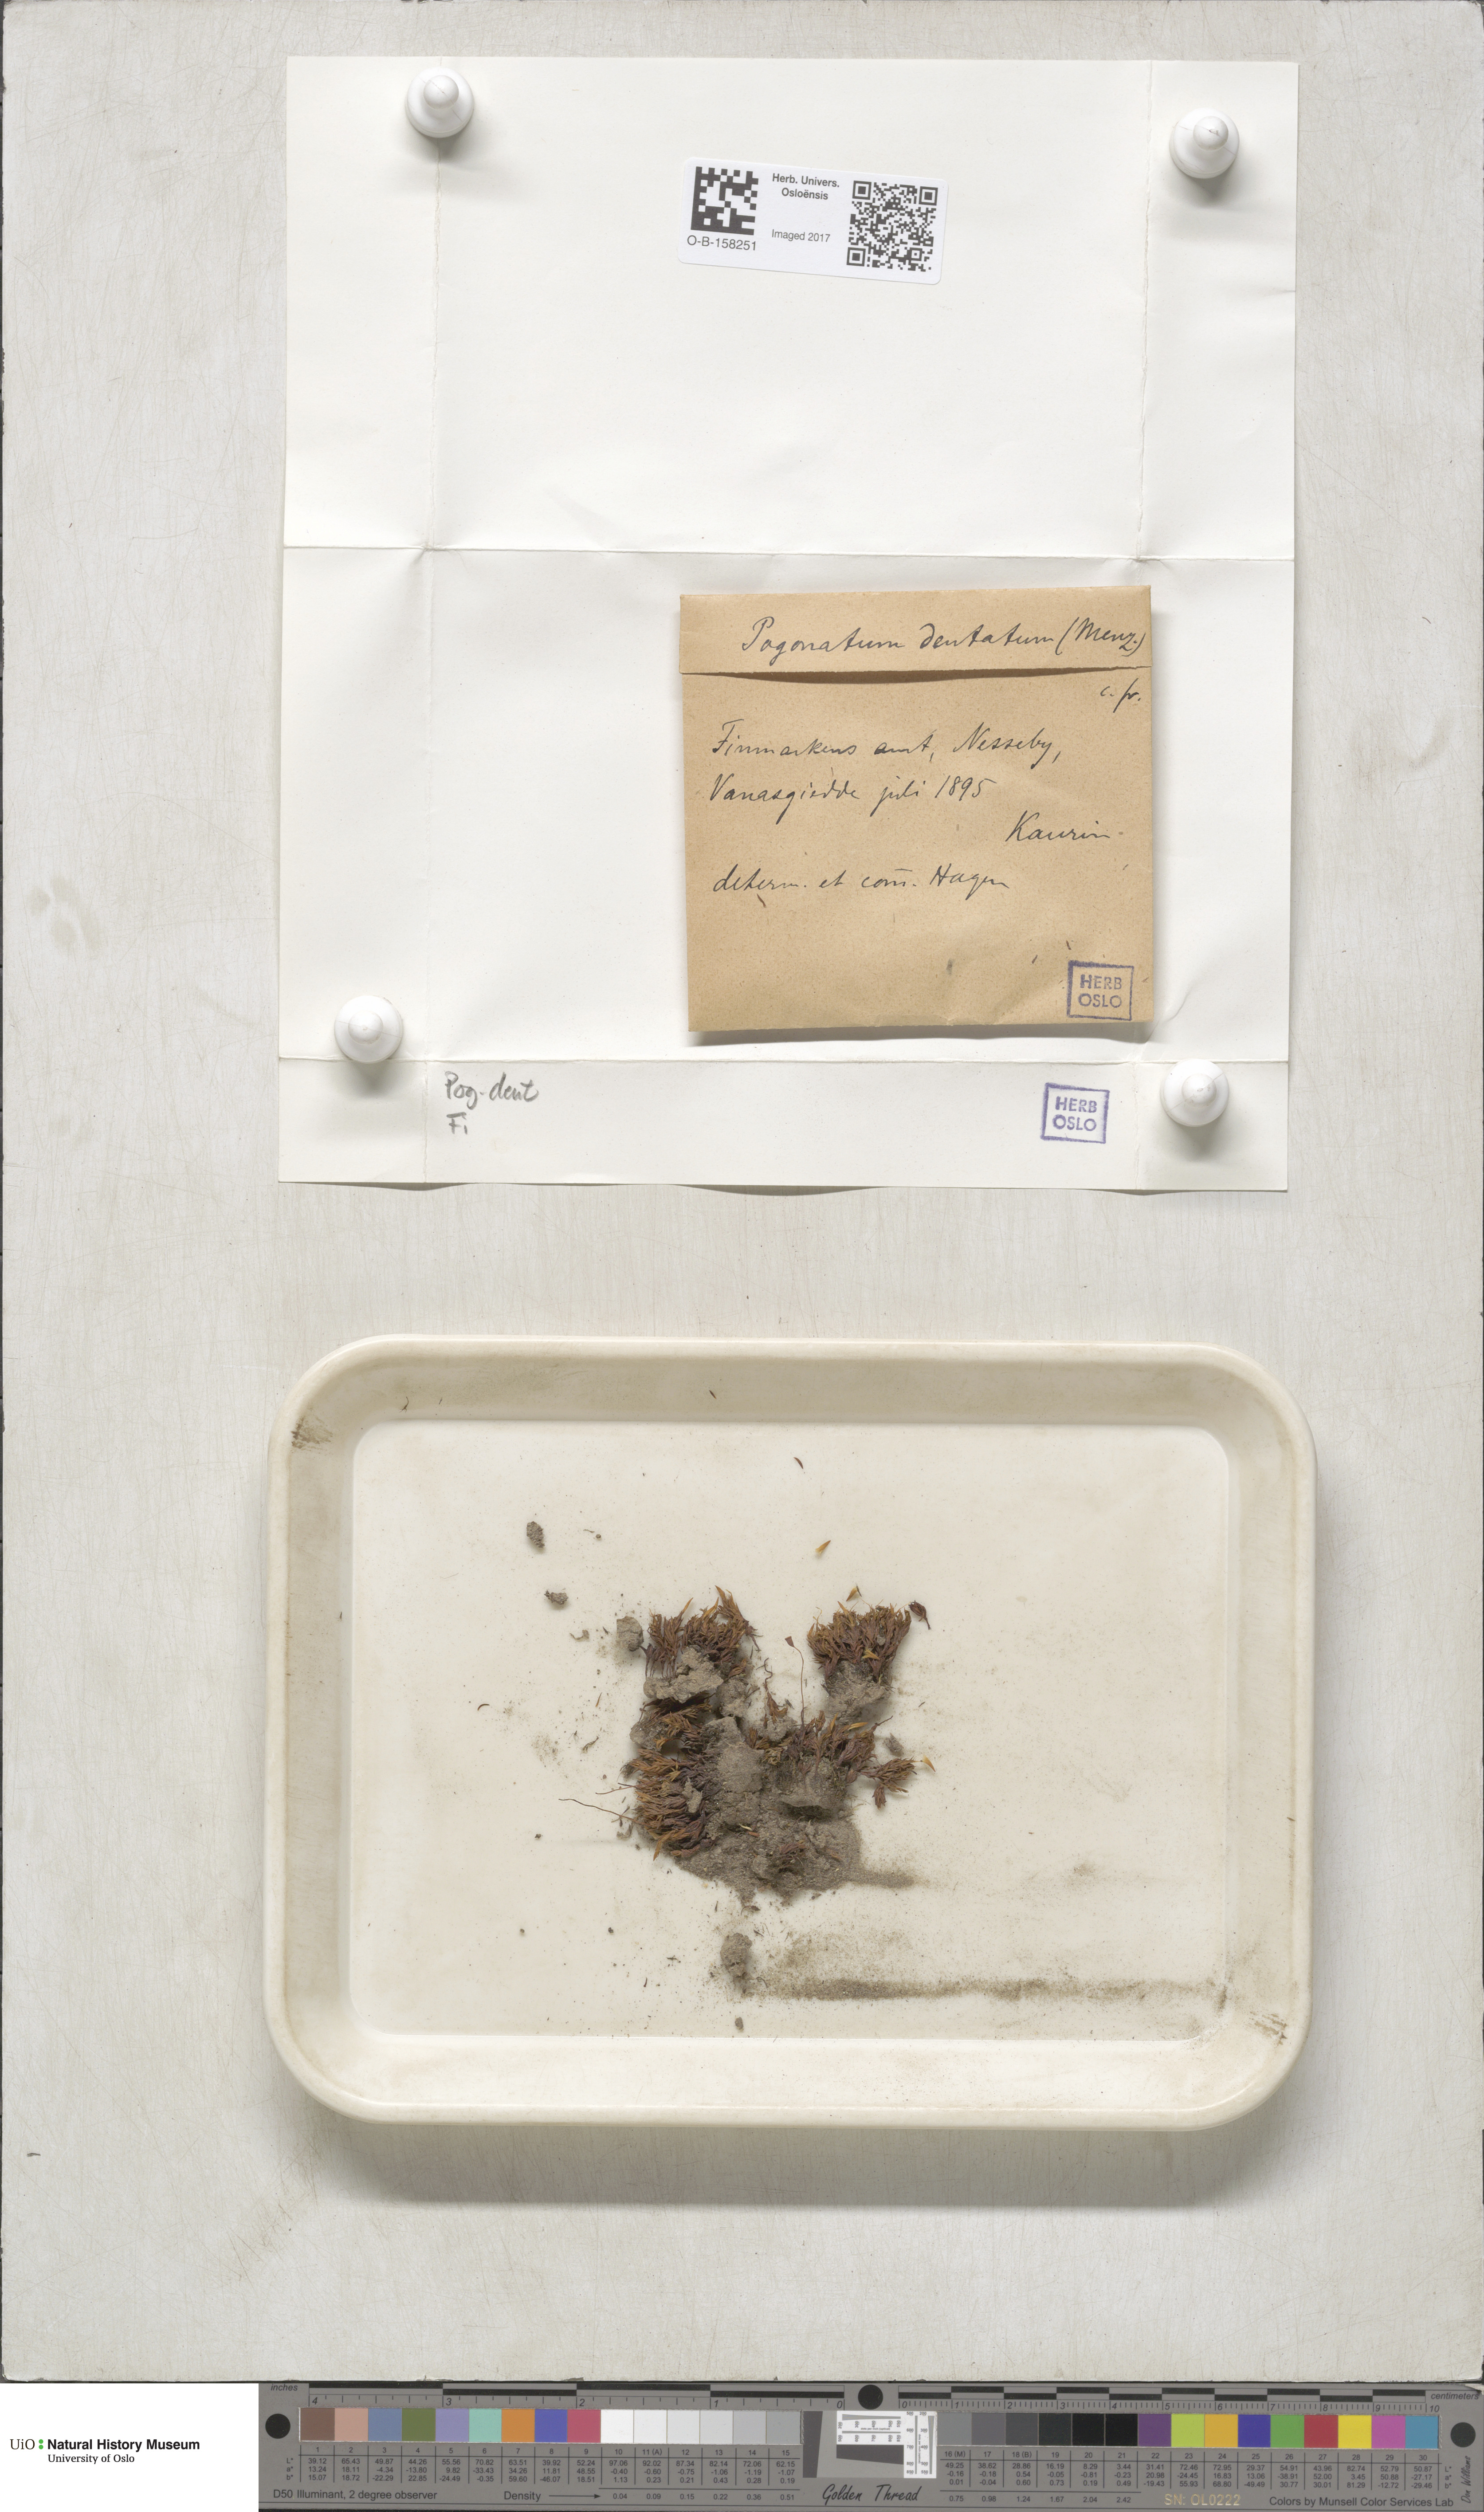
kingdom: Plantae
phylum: Bryophyta
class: Polytrichopsida
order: Polytrichales
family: Polytrichaceae
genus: Pogonatum
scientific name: Pogonatum dentatum
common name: Mountain hair moss
